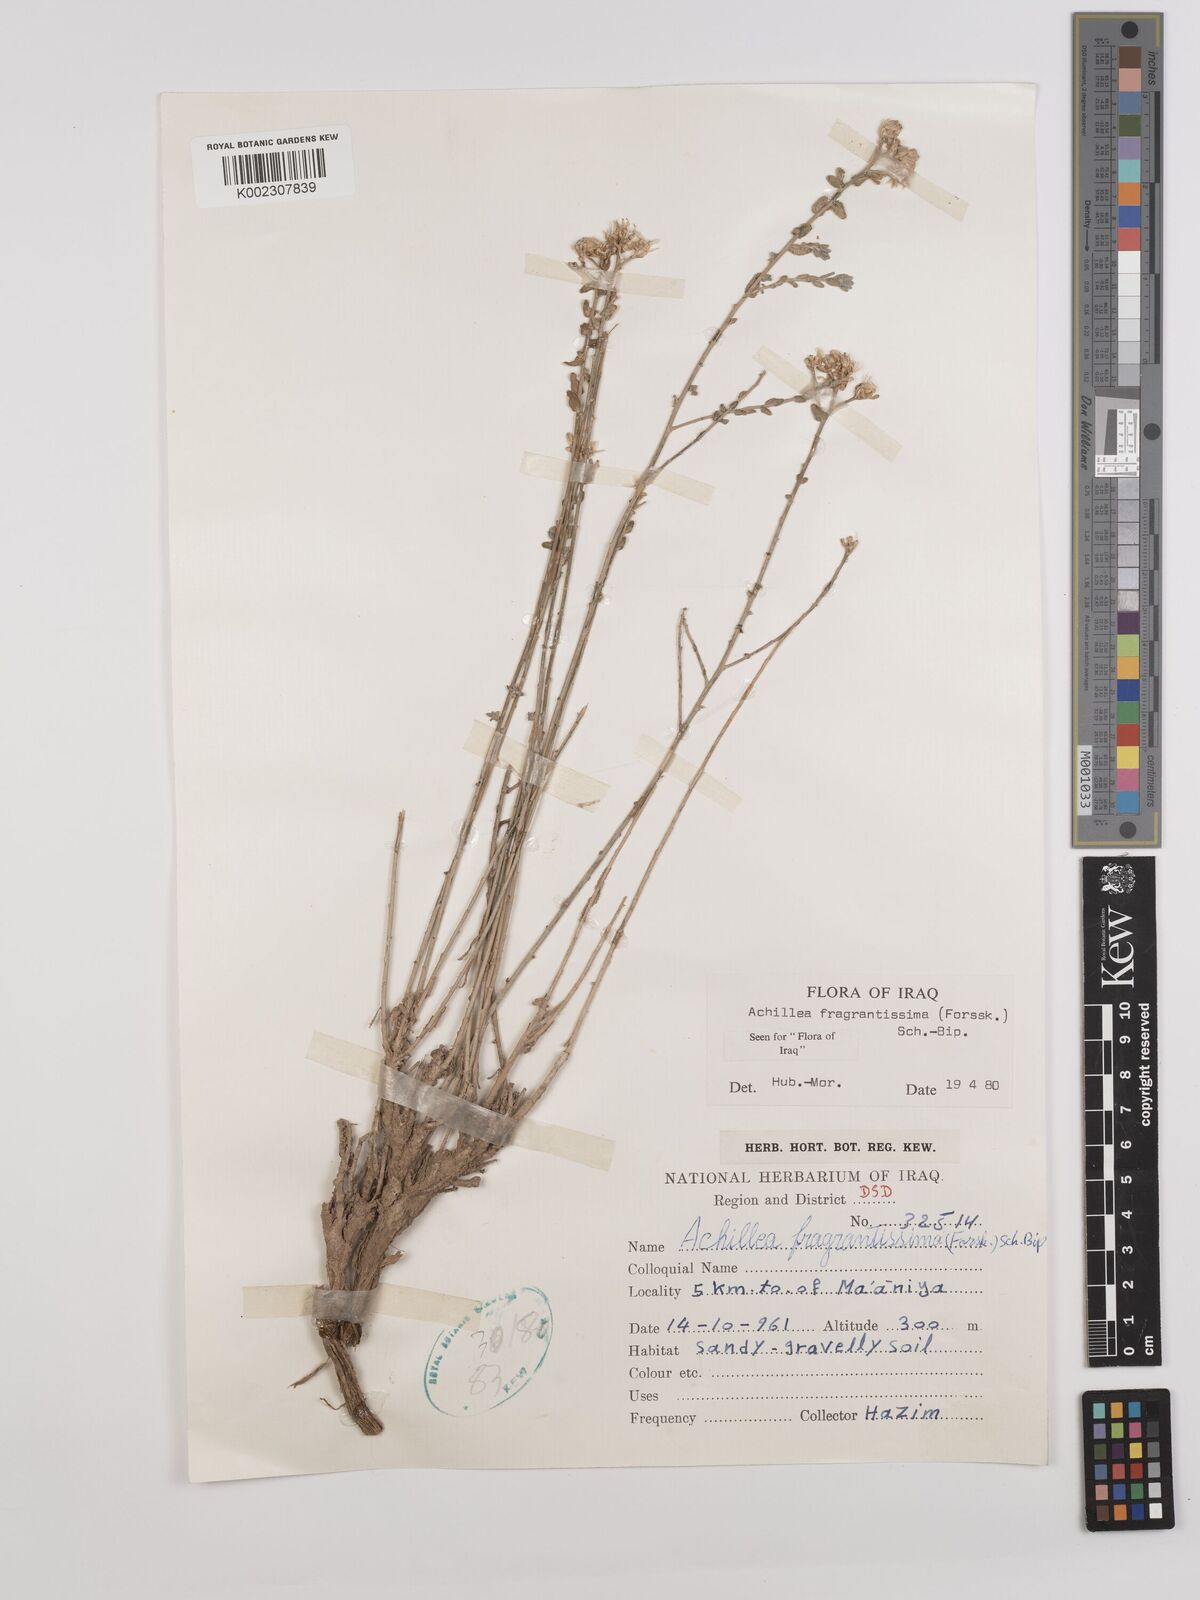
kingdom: Plantae
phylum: Tracheophyta
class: Magnoliopsida
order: Asterales
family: Asteraceae
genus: Achillea
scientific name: Achillea fragrantissima
